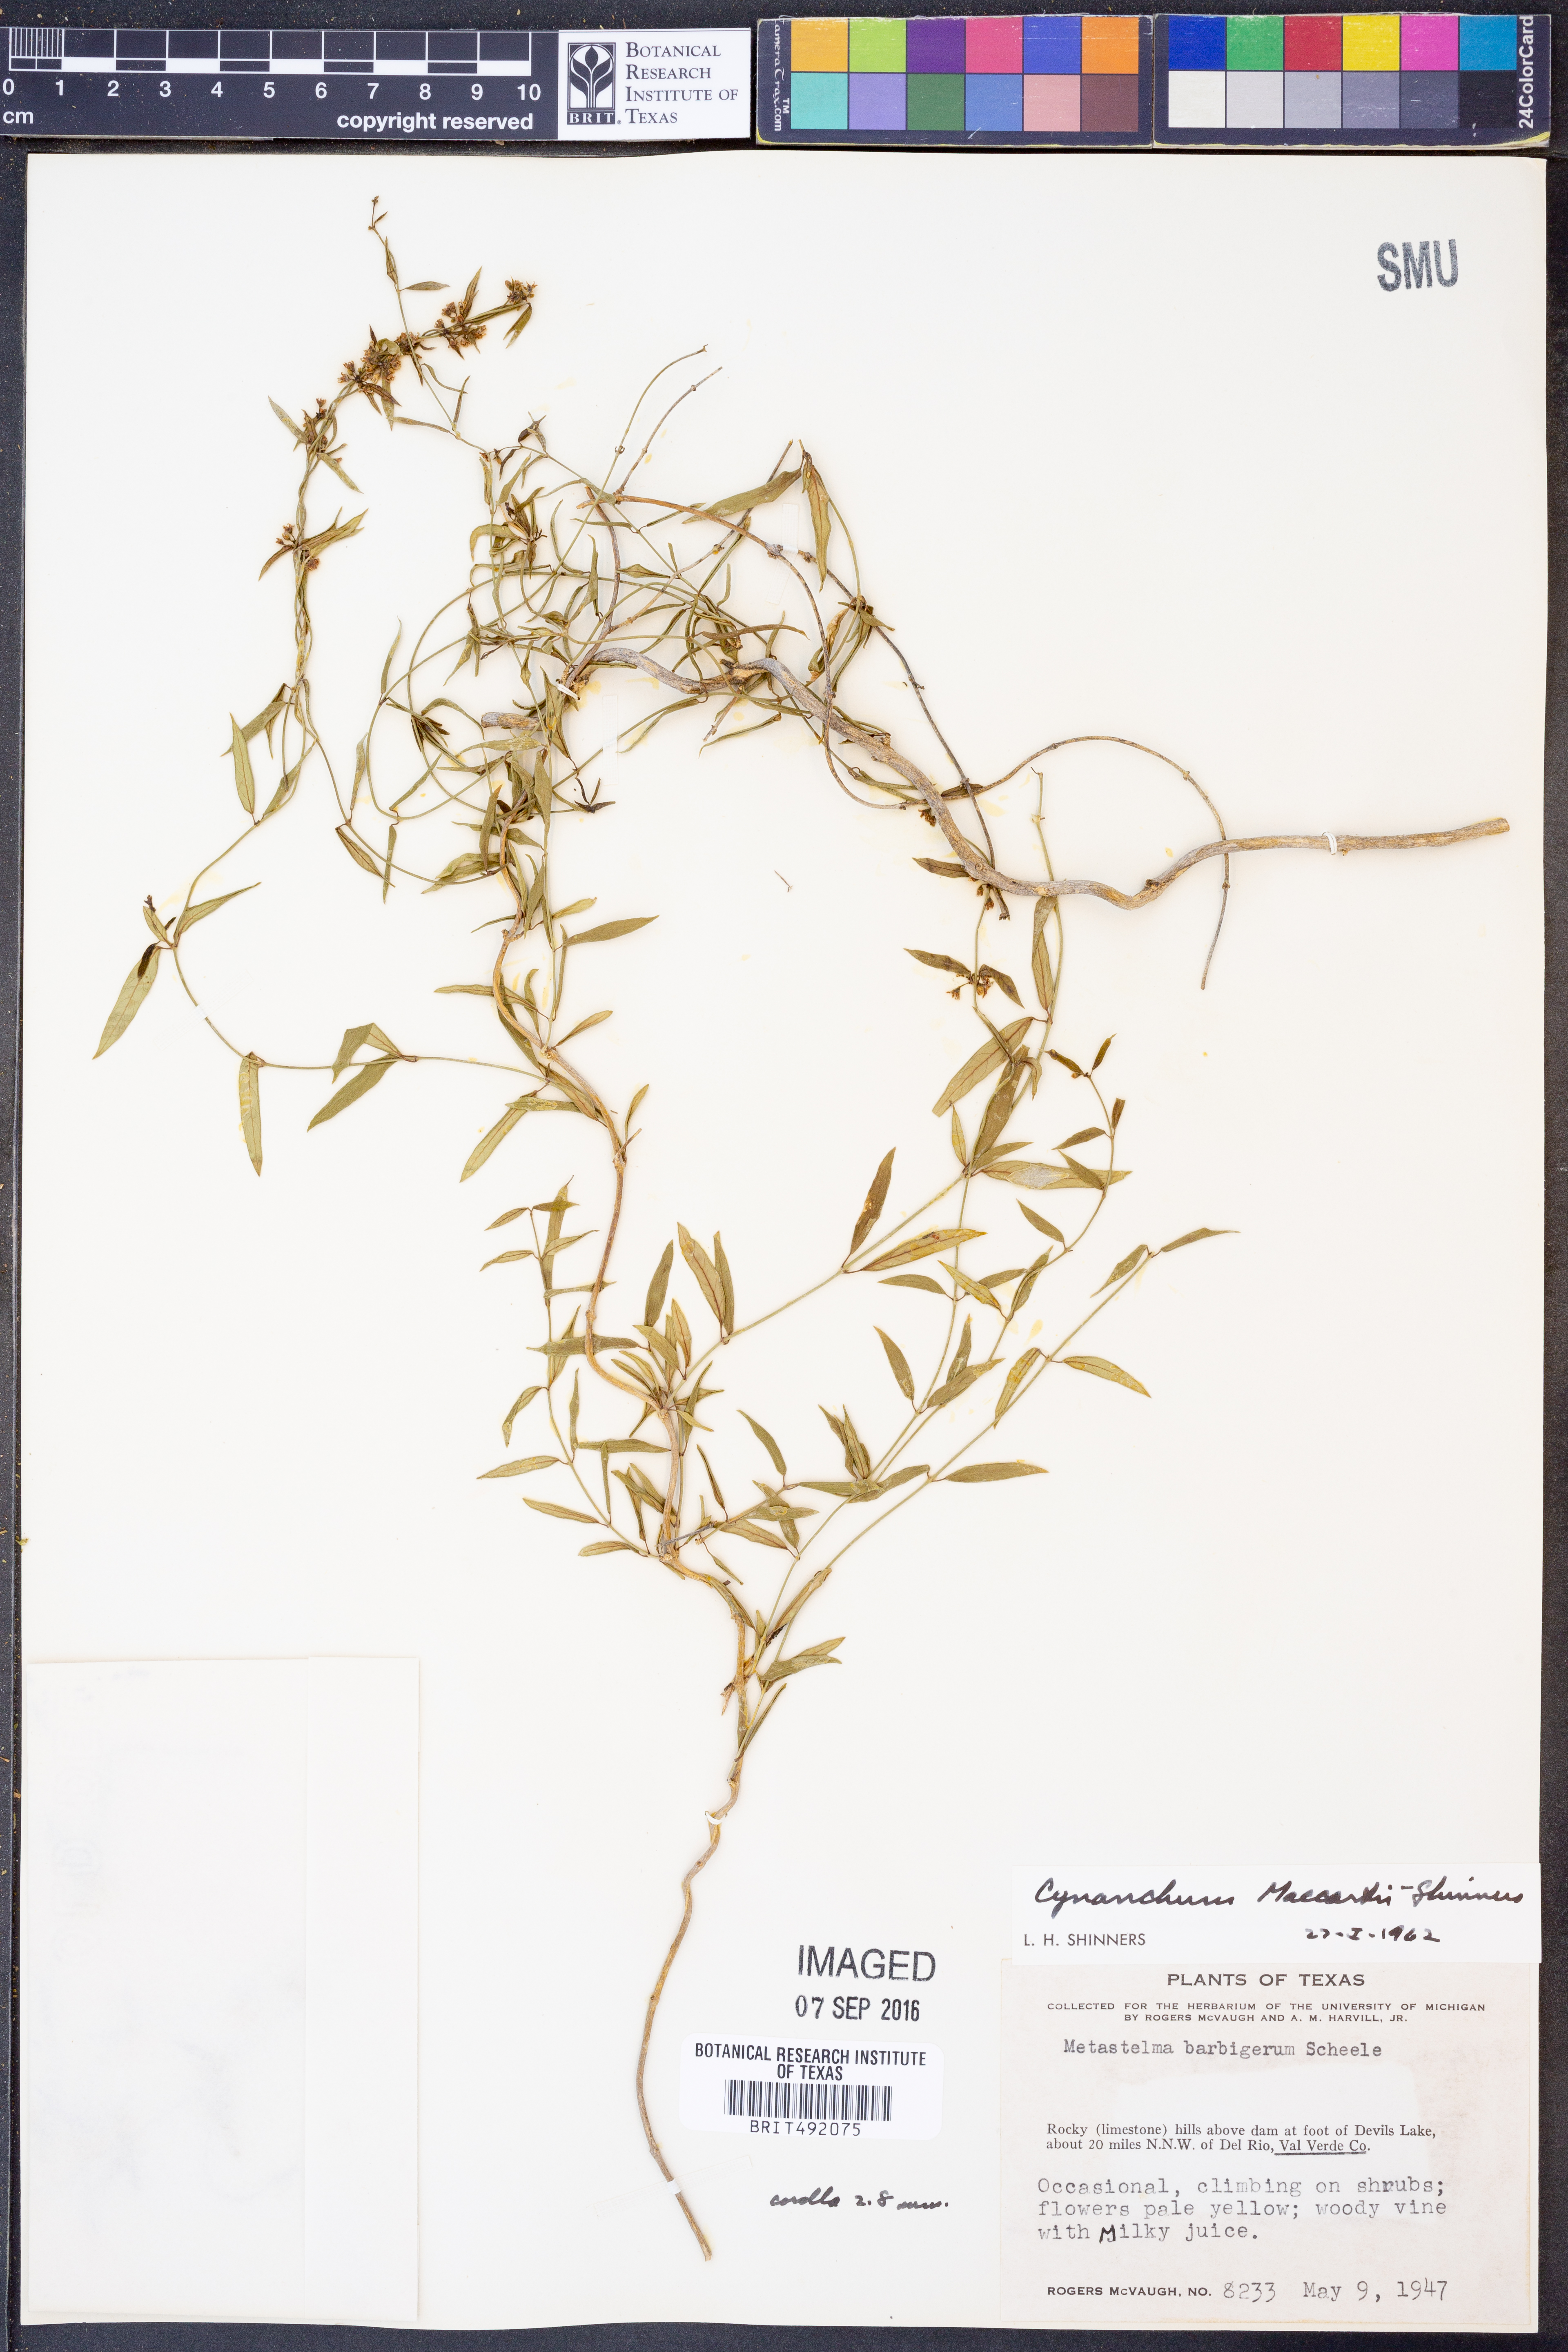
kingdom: Plantae
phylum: Tracheophyta
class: Magnoliopsida
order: Gentianales
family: Apocynaceae
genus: Metastelma
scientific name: Metastelma palmeri
